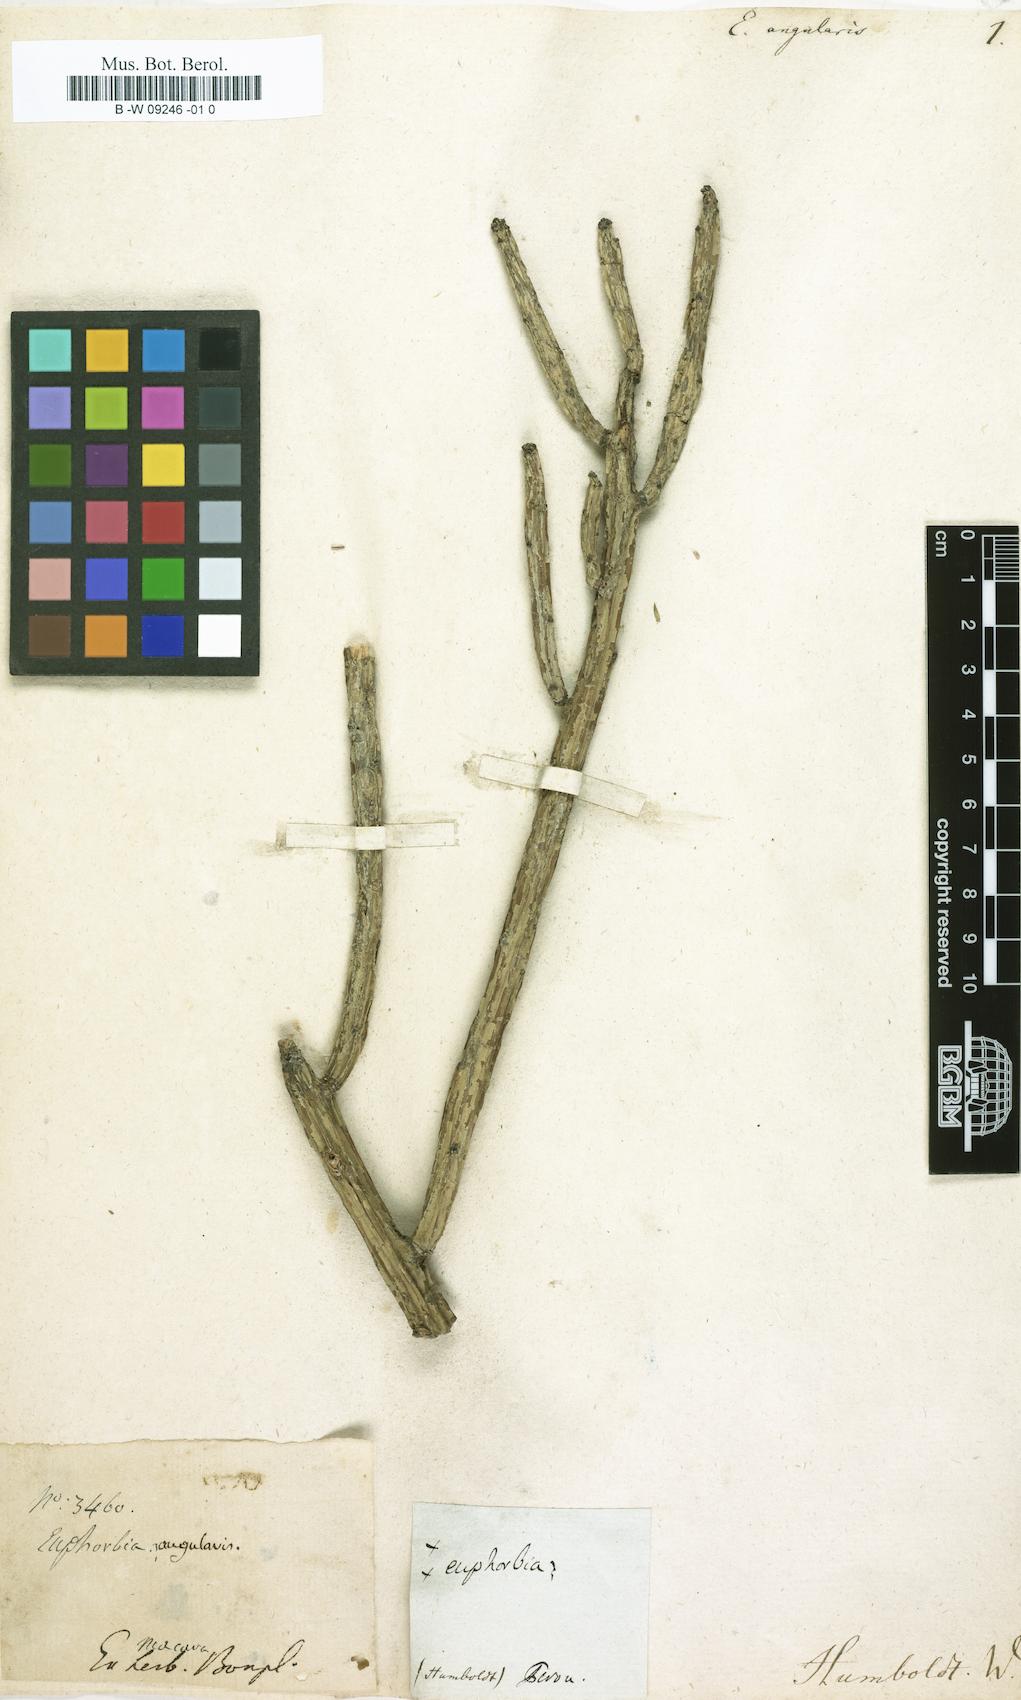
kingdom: Plantae
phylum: Tracheophyta
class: Magnoliopsida
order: Malpighiales
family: Euphorbiaceae
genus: Euphorbia
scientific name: Euphorbia angularis
